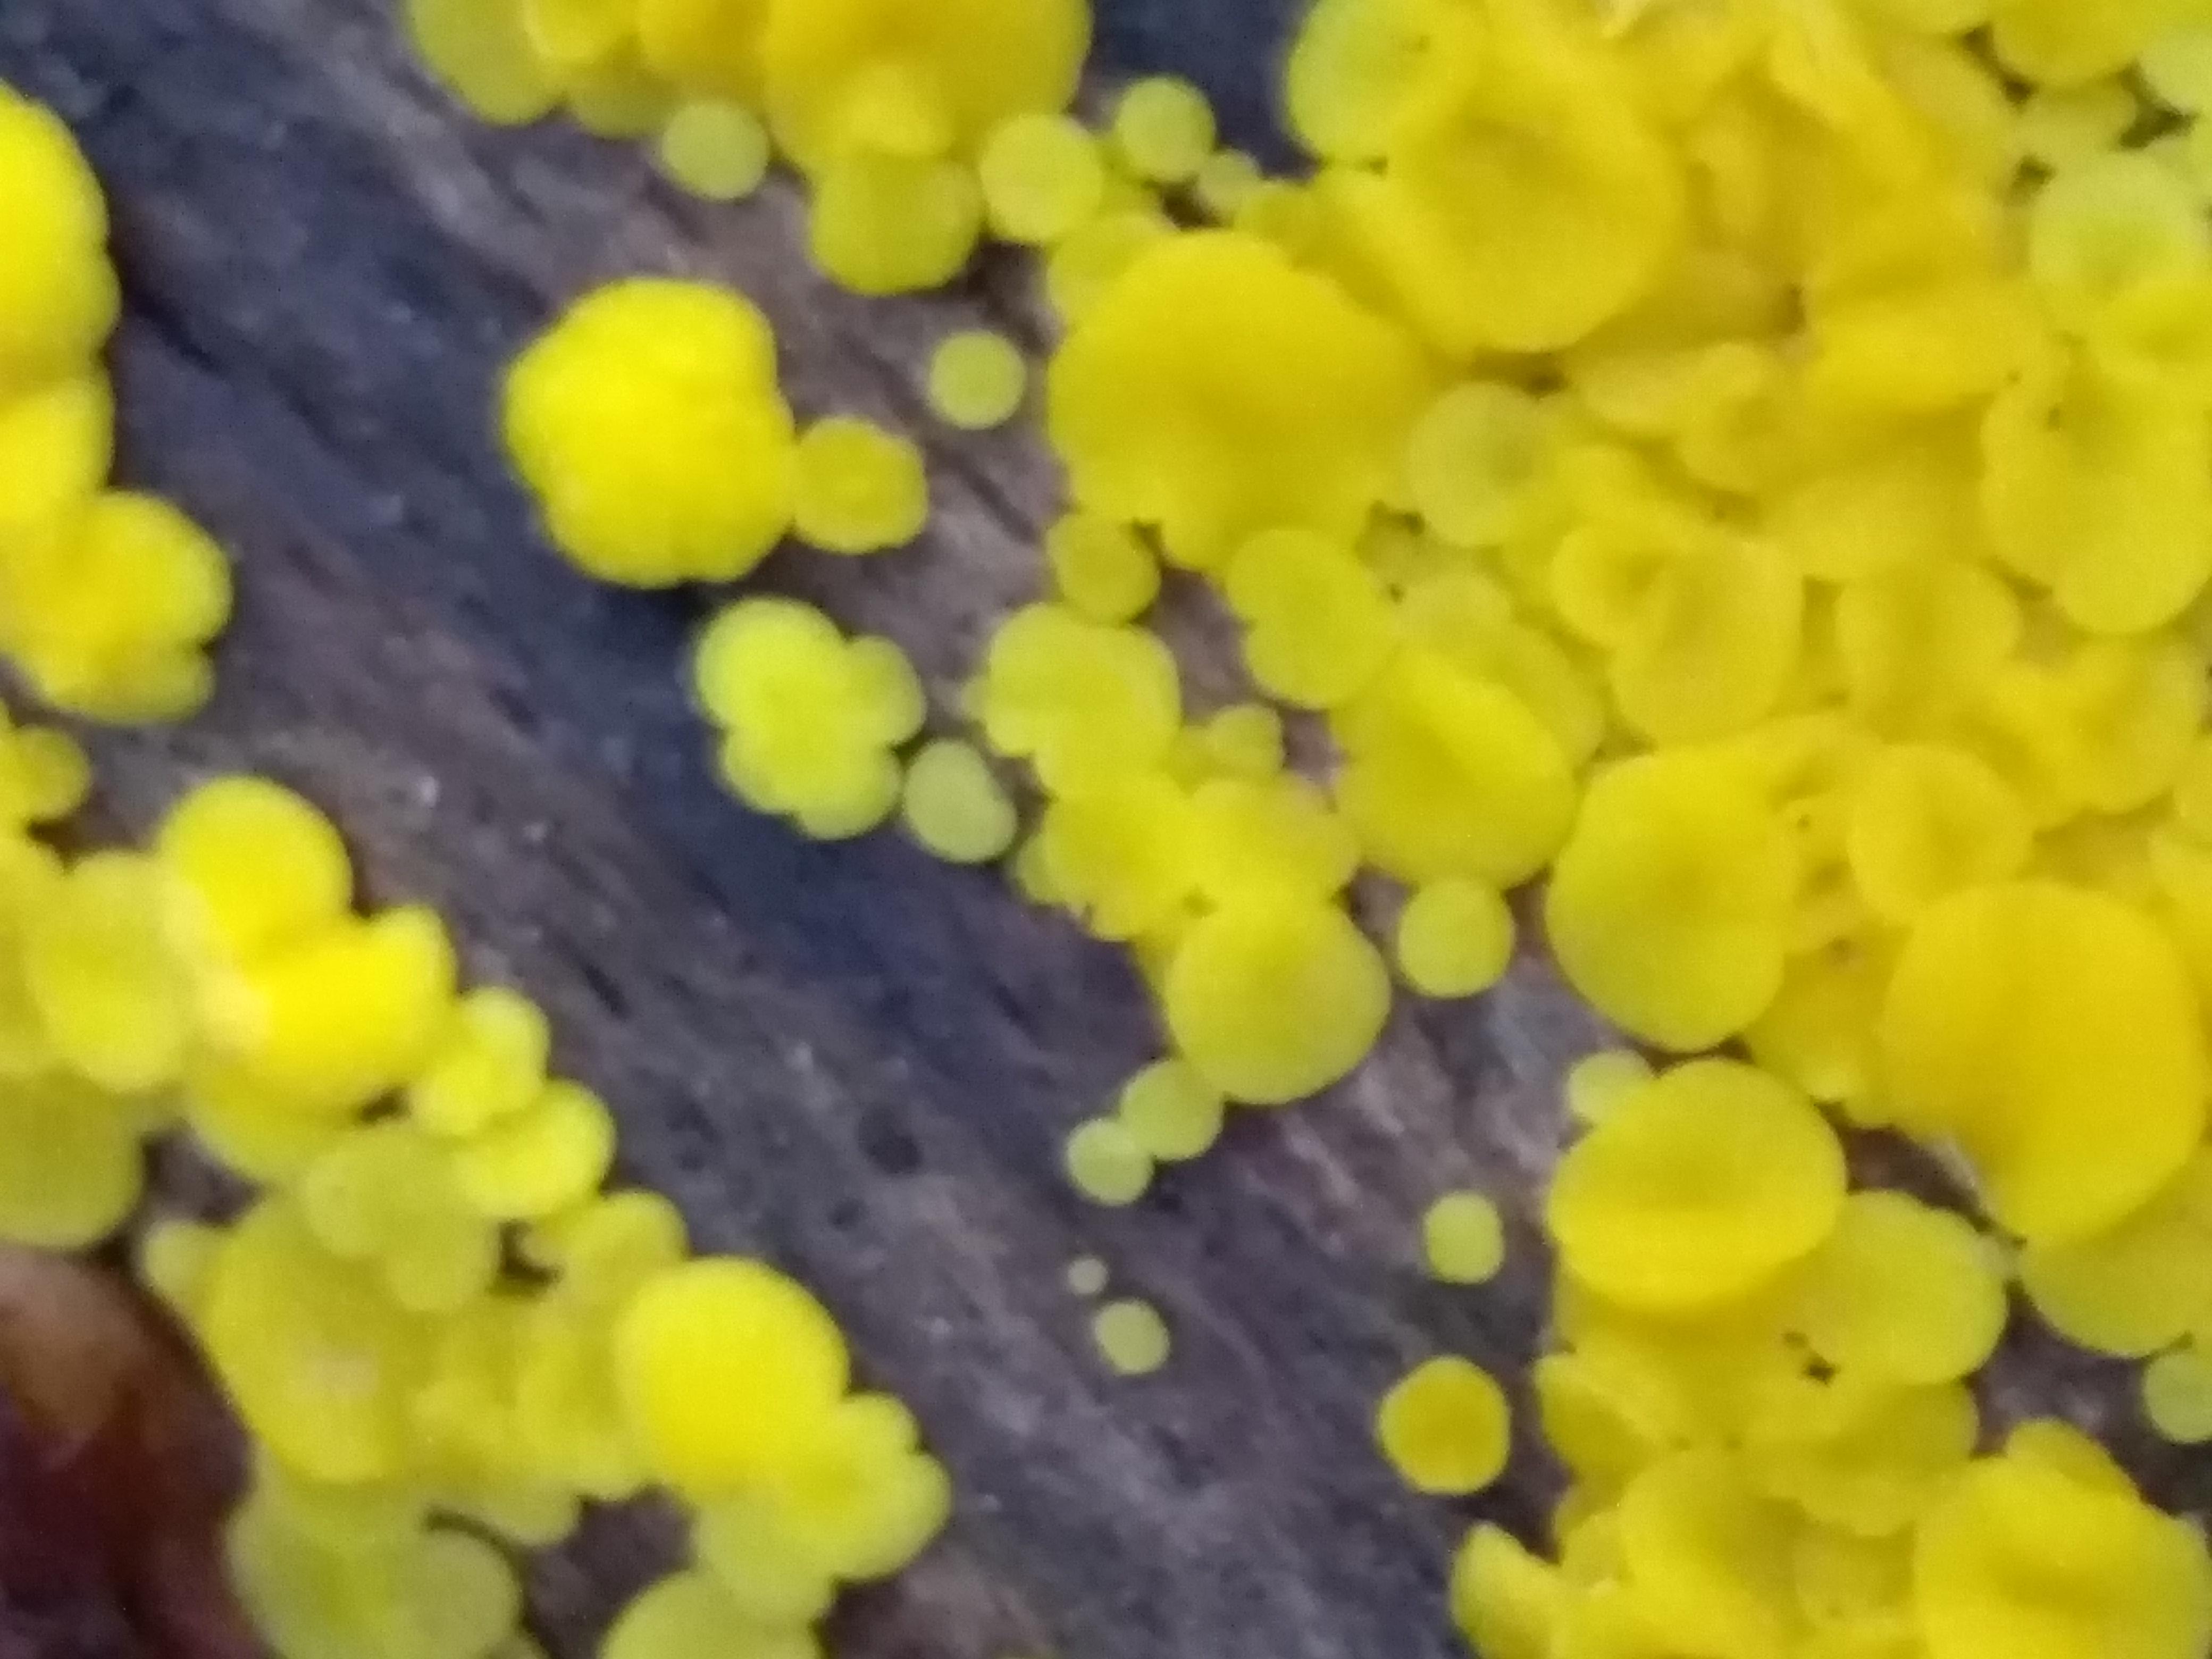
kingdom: Fungi
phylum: Ascomycota
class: Leotiomycetes
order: Helotiales
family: Pezizellaceae
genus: Calycina
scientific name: Calycina citrina
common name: almindelig gulskive
